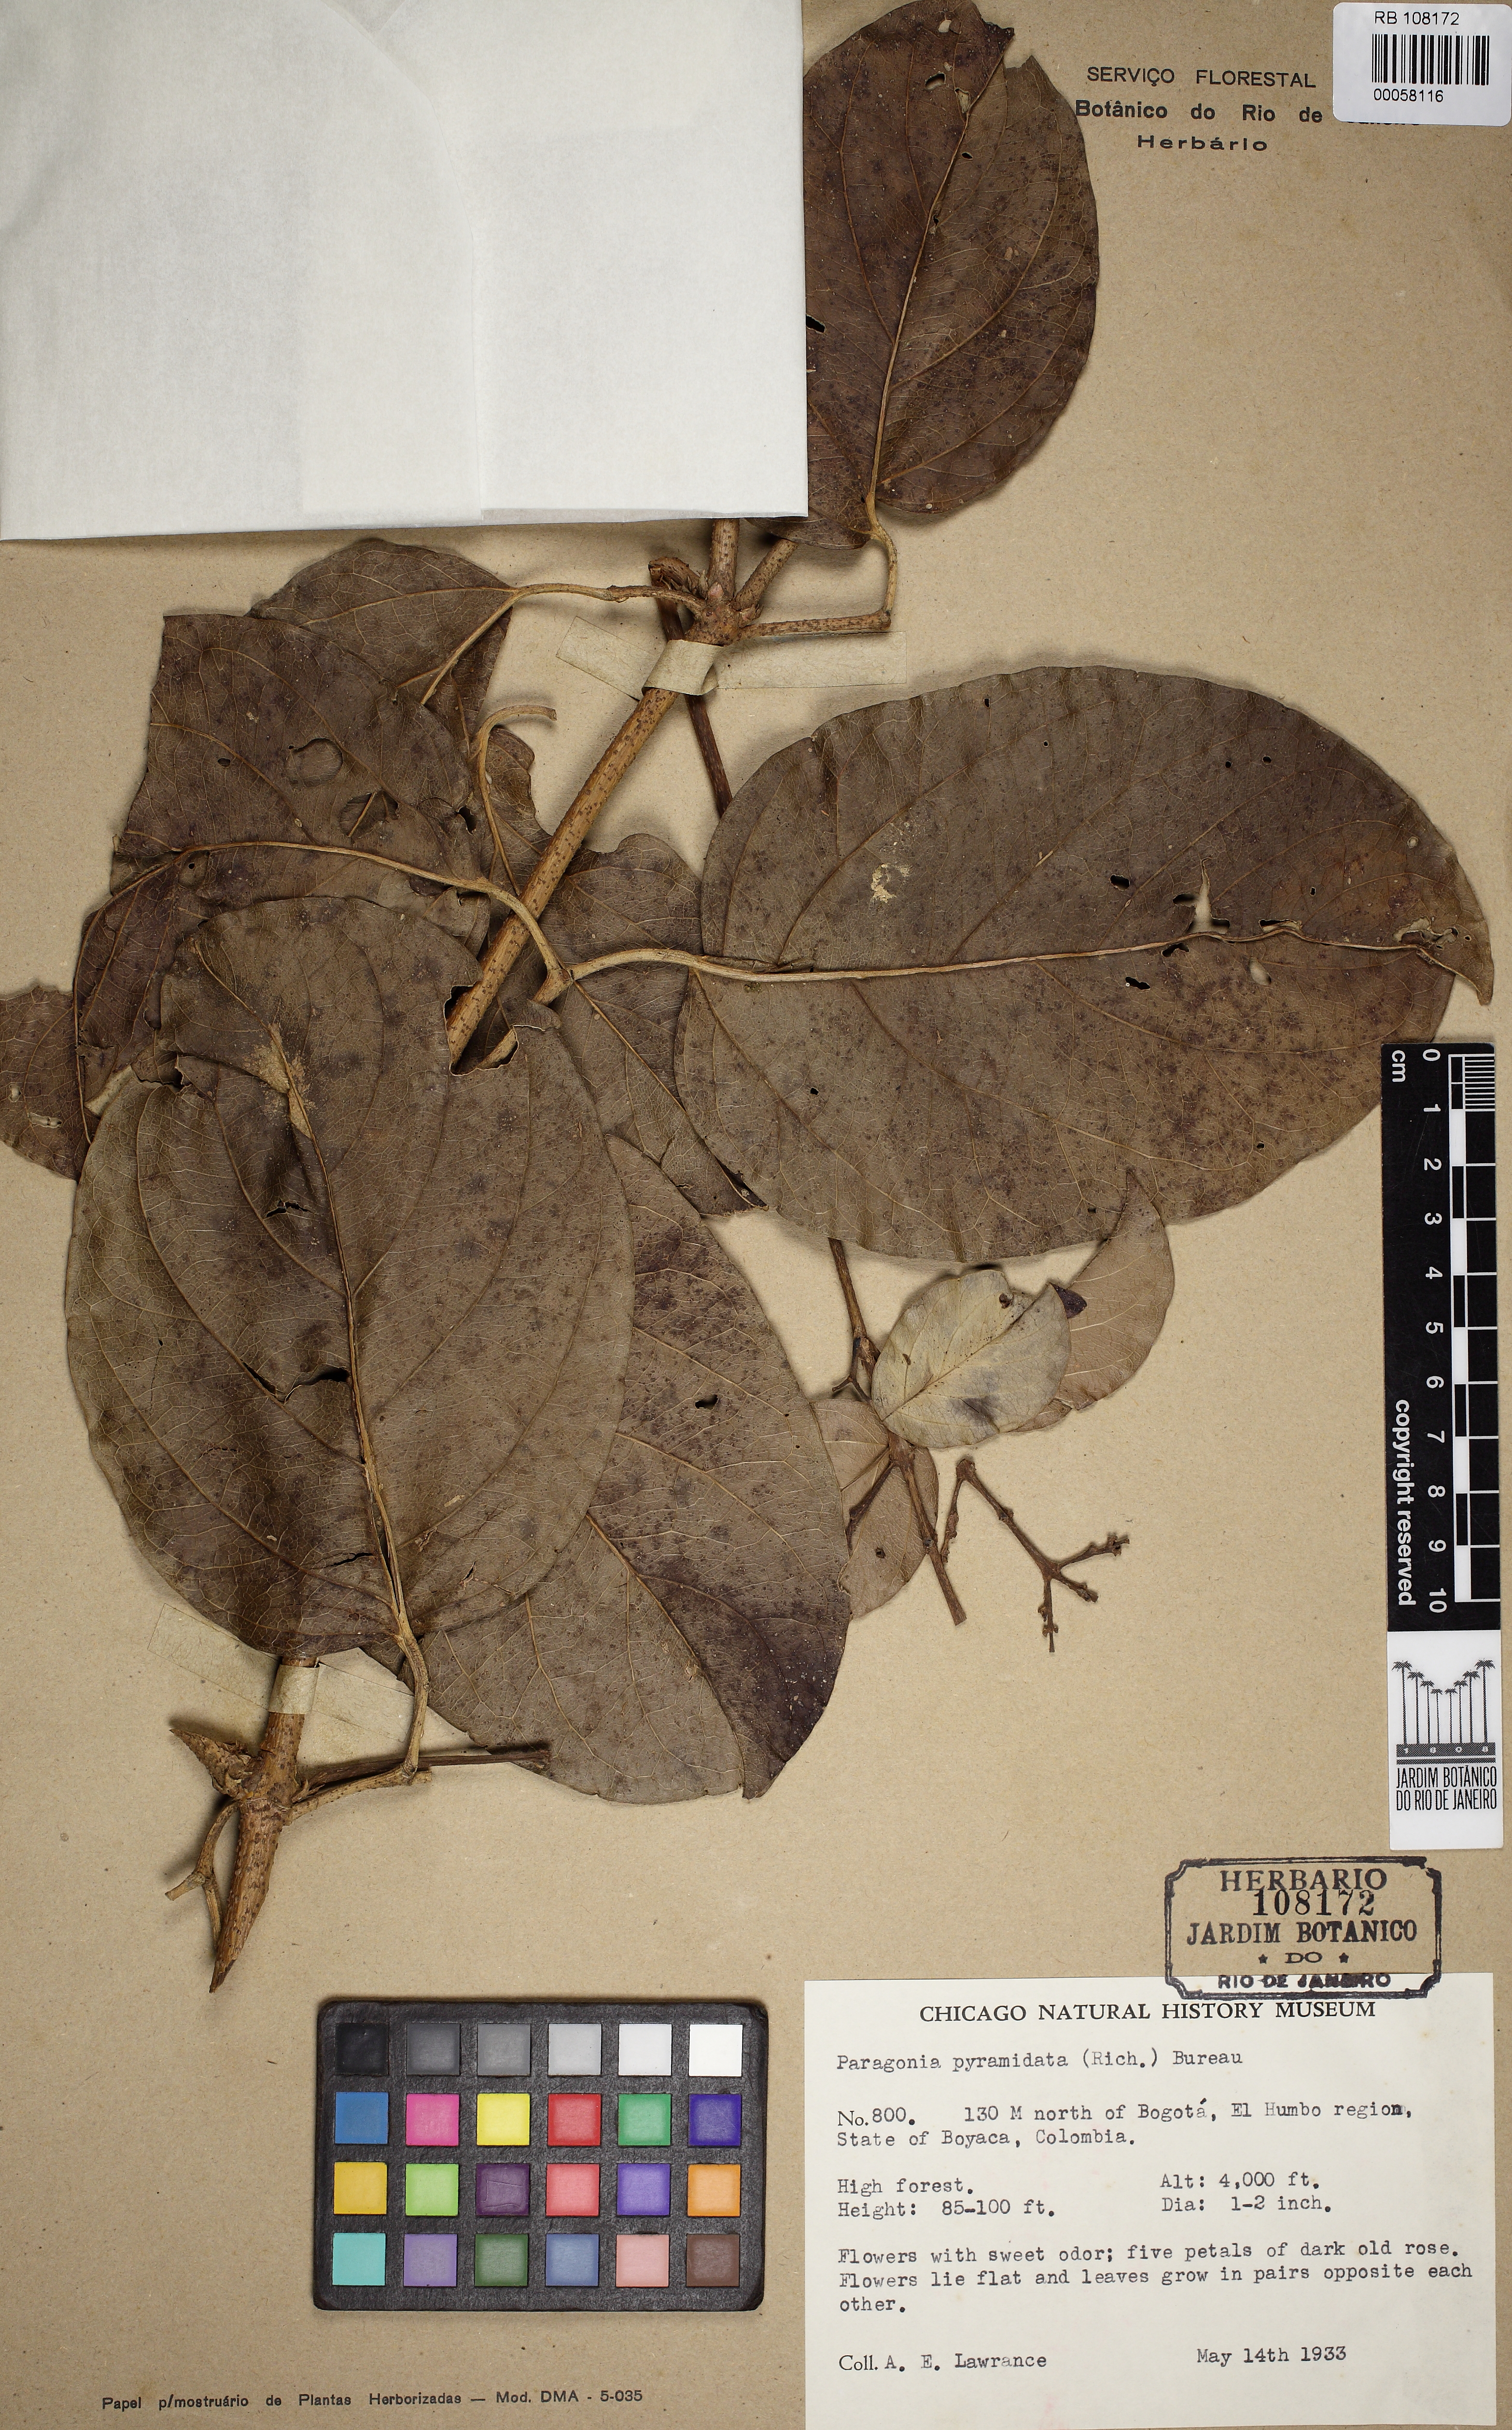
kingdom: Plantae
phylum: Tracheophyta
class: Magnoliopsida
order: Lamiales
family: Bignoniaceae
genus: Tanaecium
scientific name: Tanaecium pyramidatum
